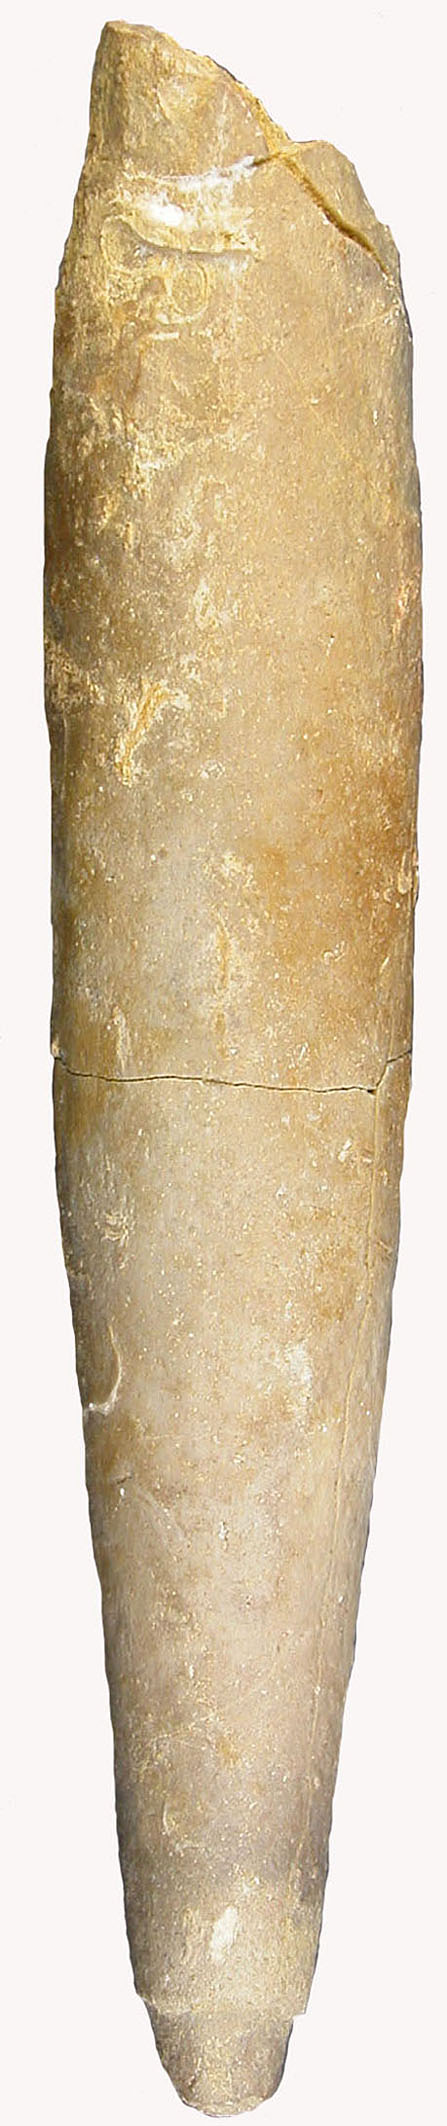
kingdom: Animalia
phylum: Mollusca
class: Cephalopoda
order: Belemnitida
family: Megateuthididae
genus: Megateuthis
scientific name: Megateuthis
